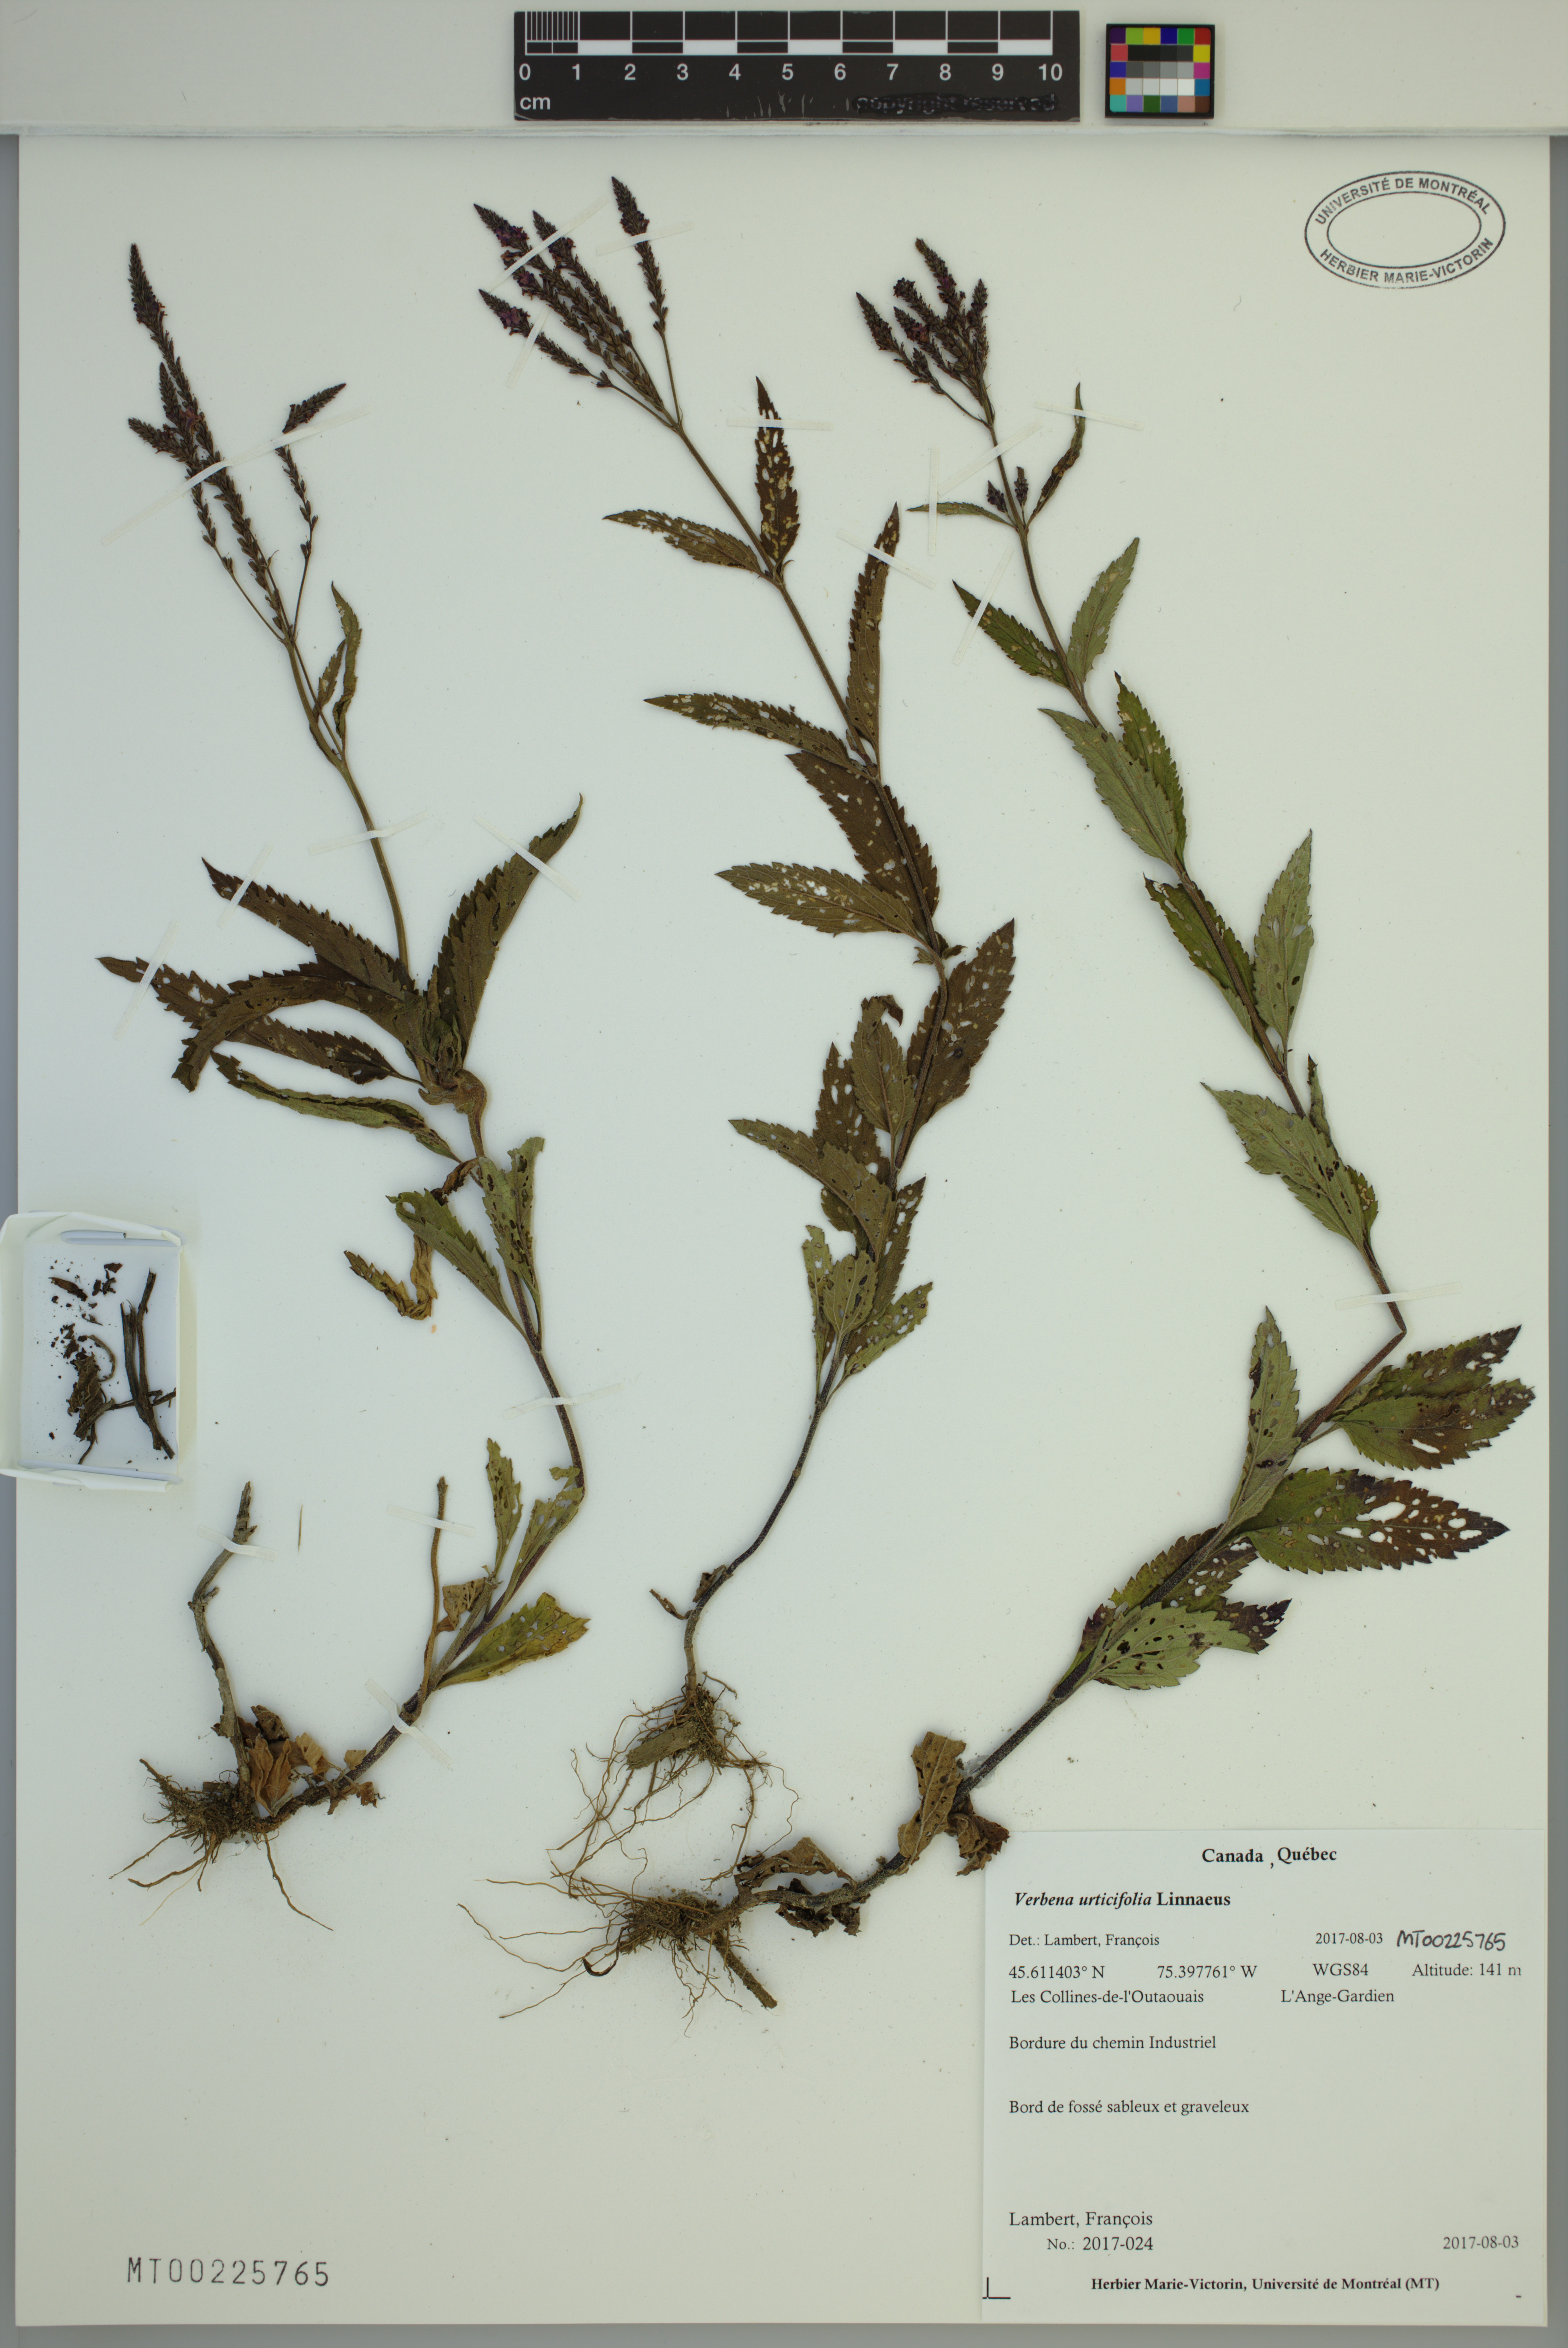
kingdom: Plantae
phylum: Tracheophyta
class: Magnoliopsida
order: Lamiales
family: Verbenaceae
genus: Verbena
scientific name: Verbena urticifolia
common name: Nettle-leaved vervain
